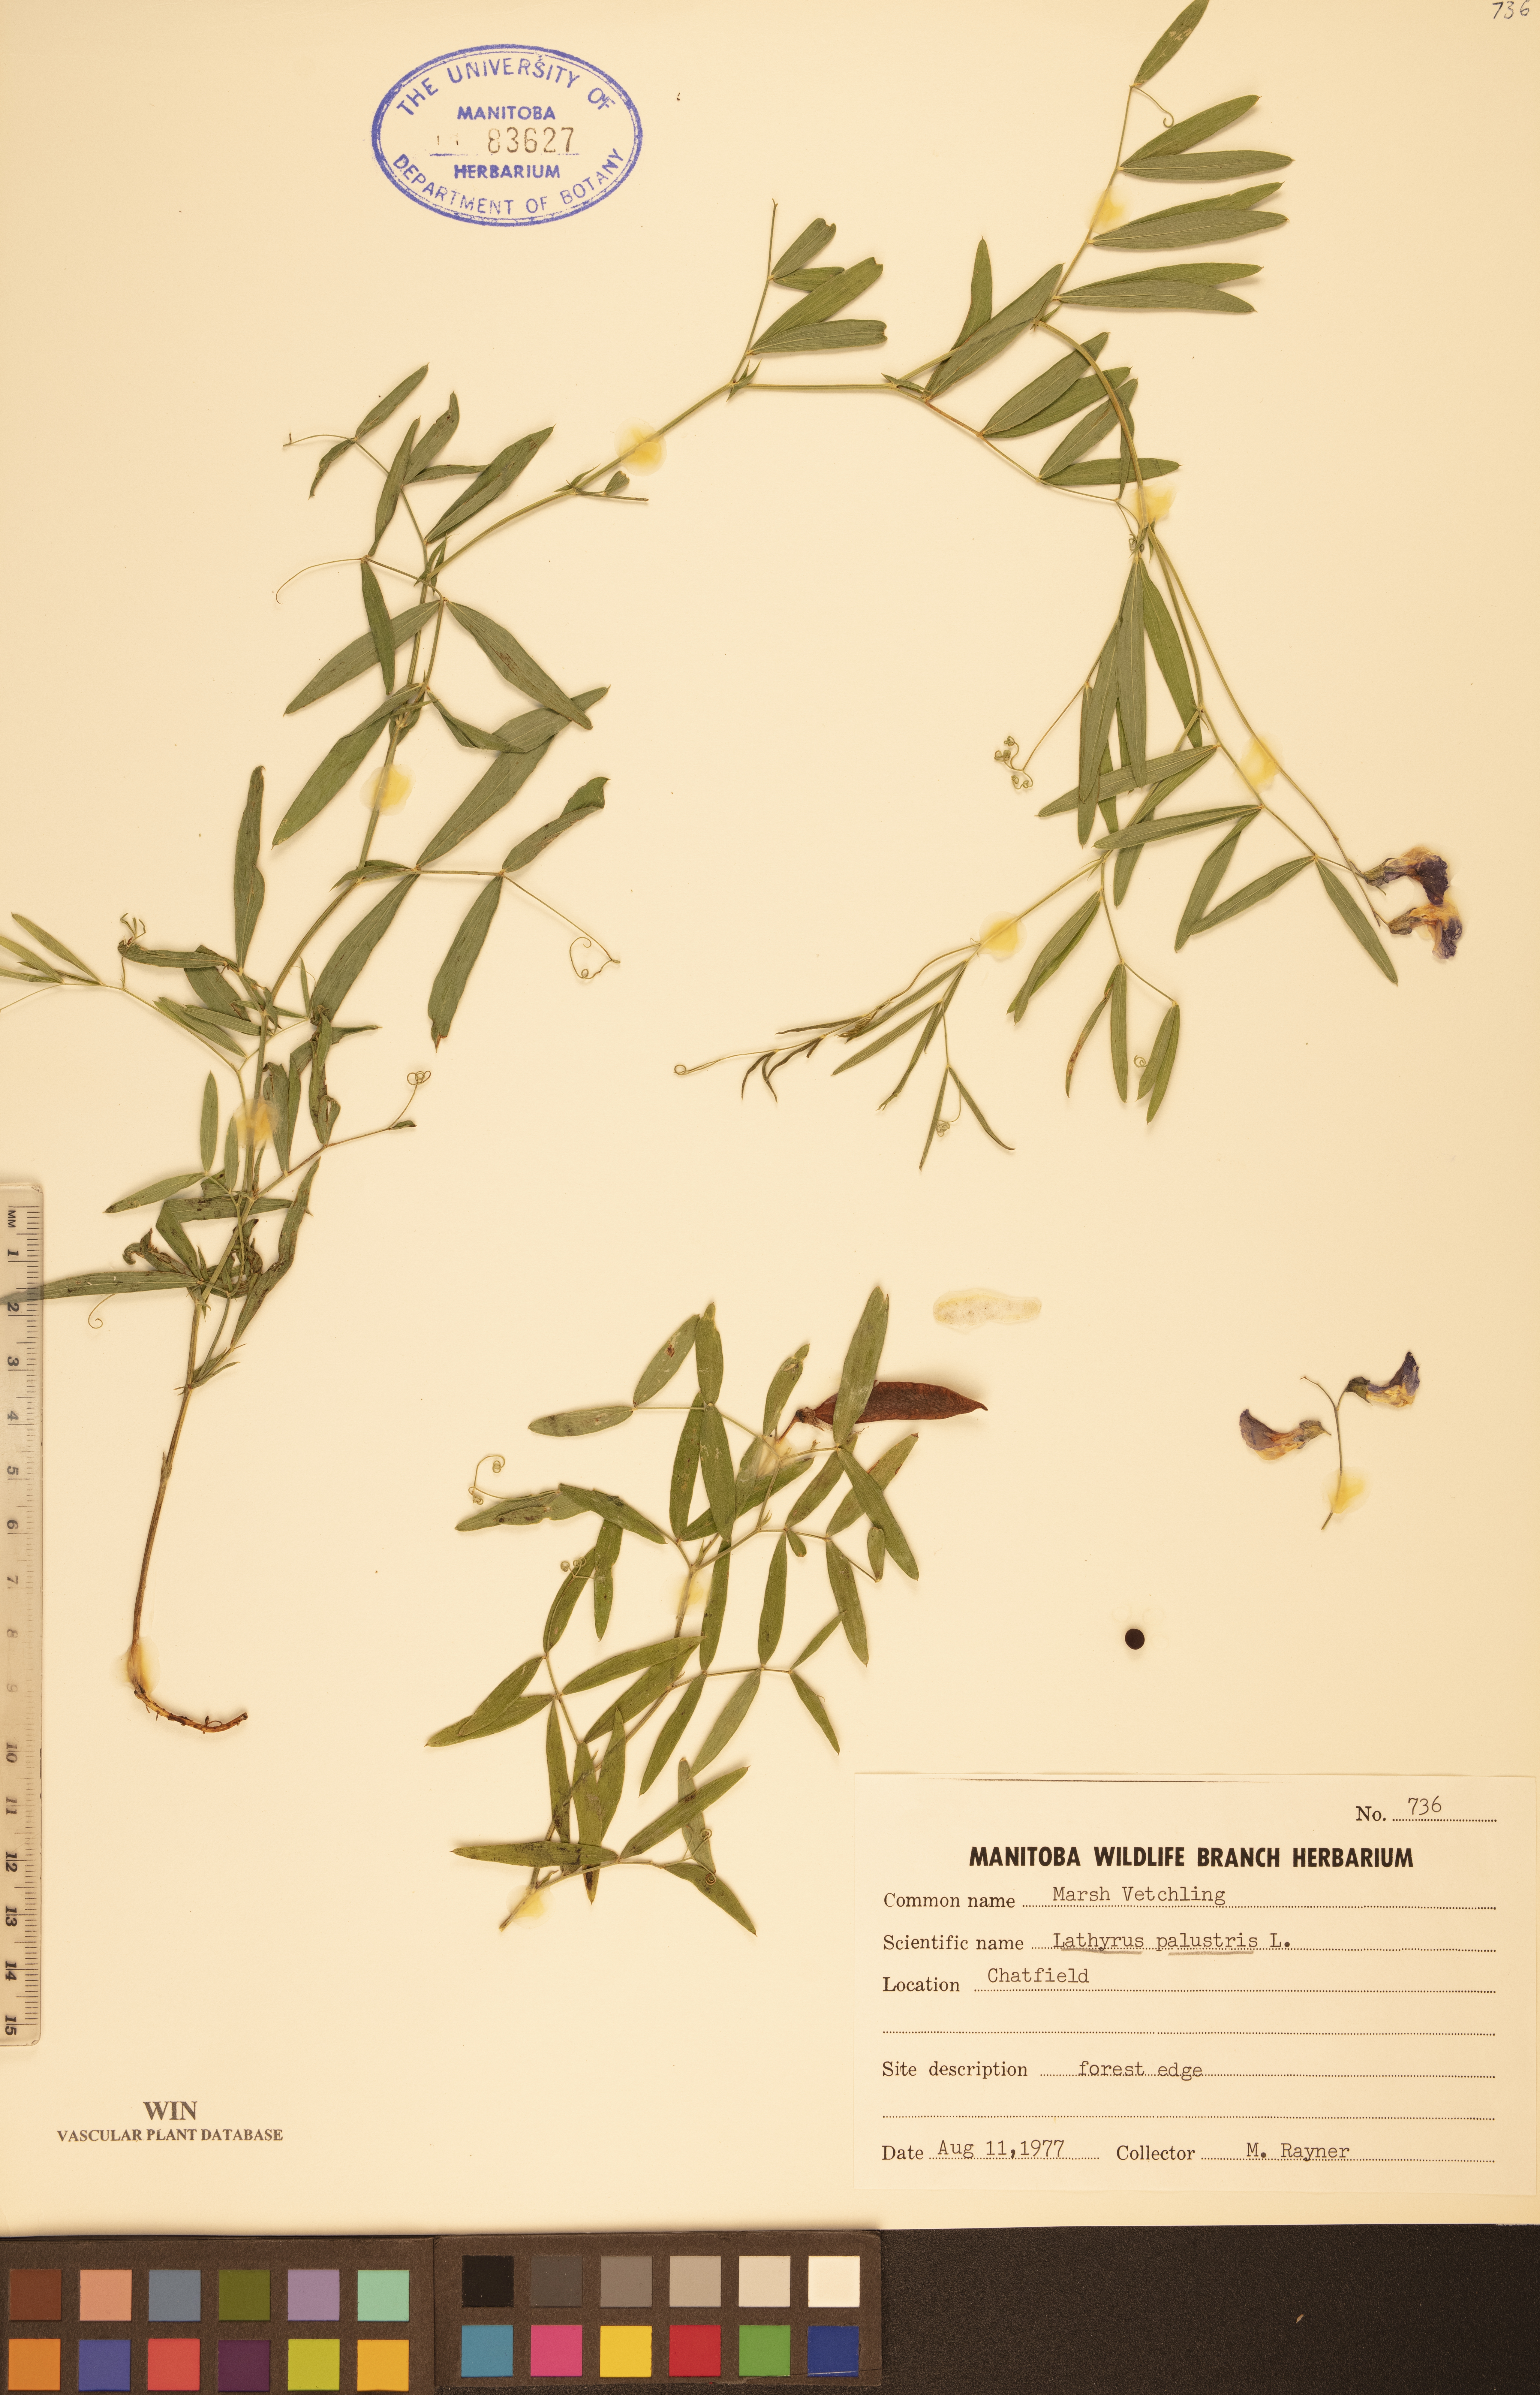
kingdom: Plantae
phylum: Tracheophyta
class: Magnoliopsida
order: Fabales
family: Fabaceae
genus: Lathyrus
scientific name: Lathyrus palustris
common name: Marsh pea
